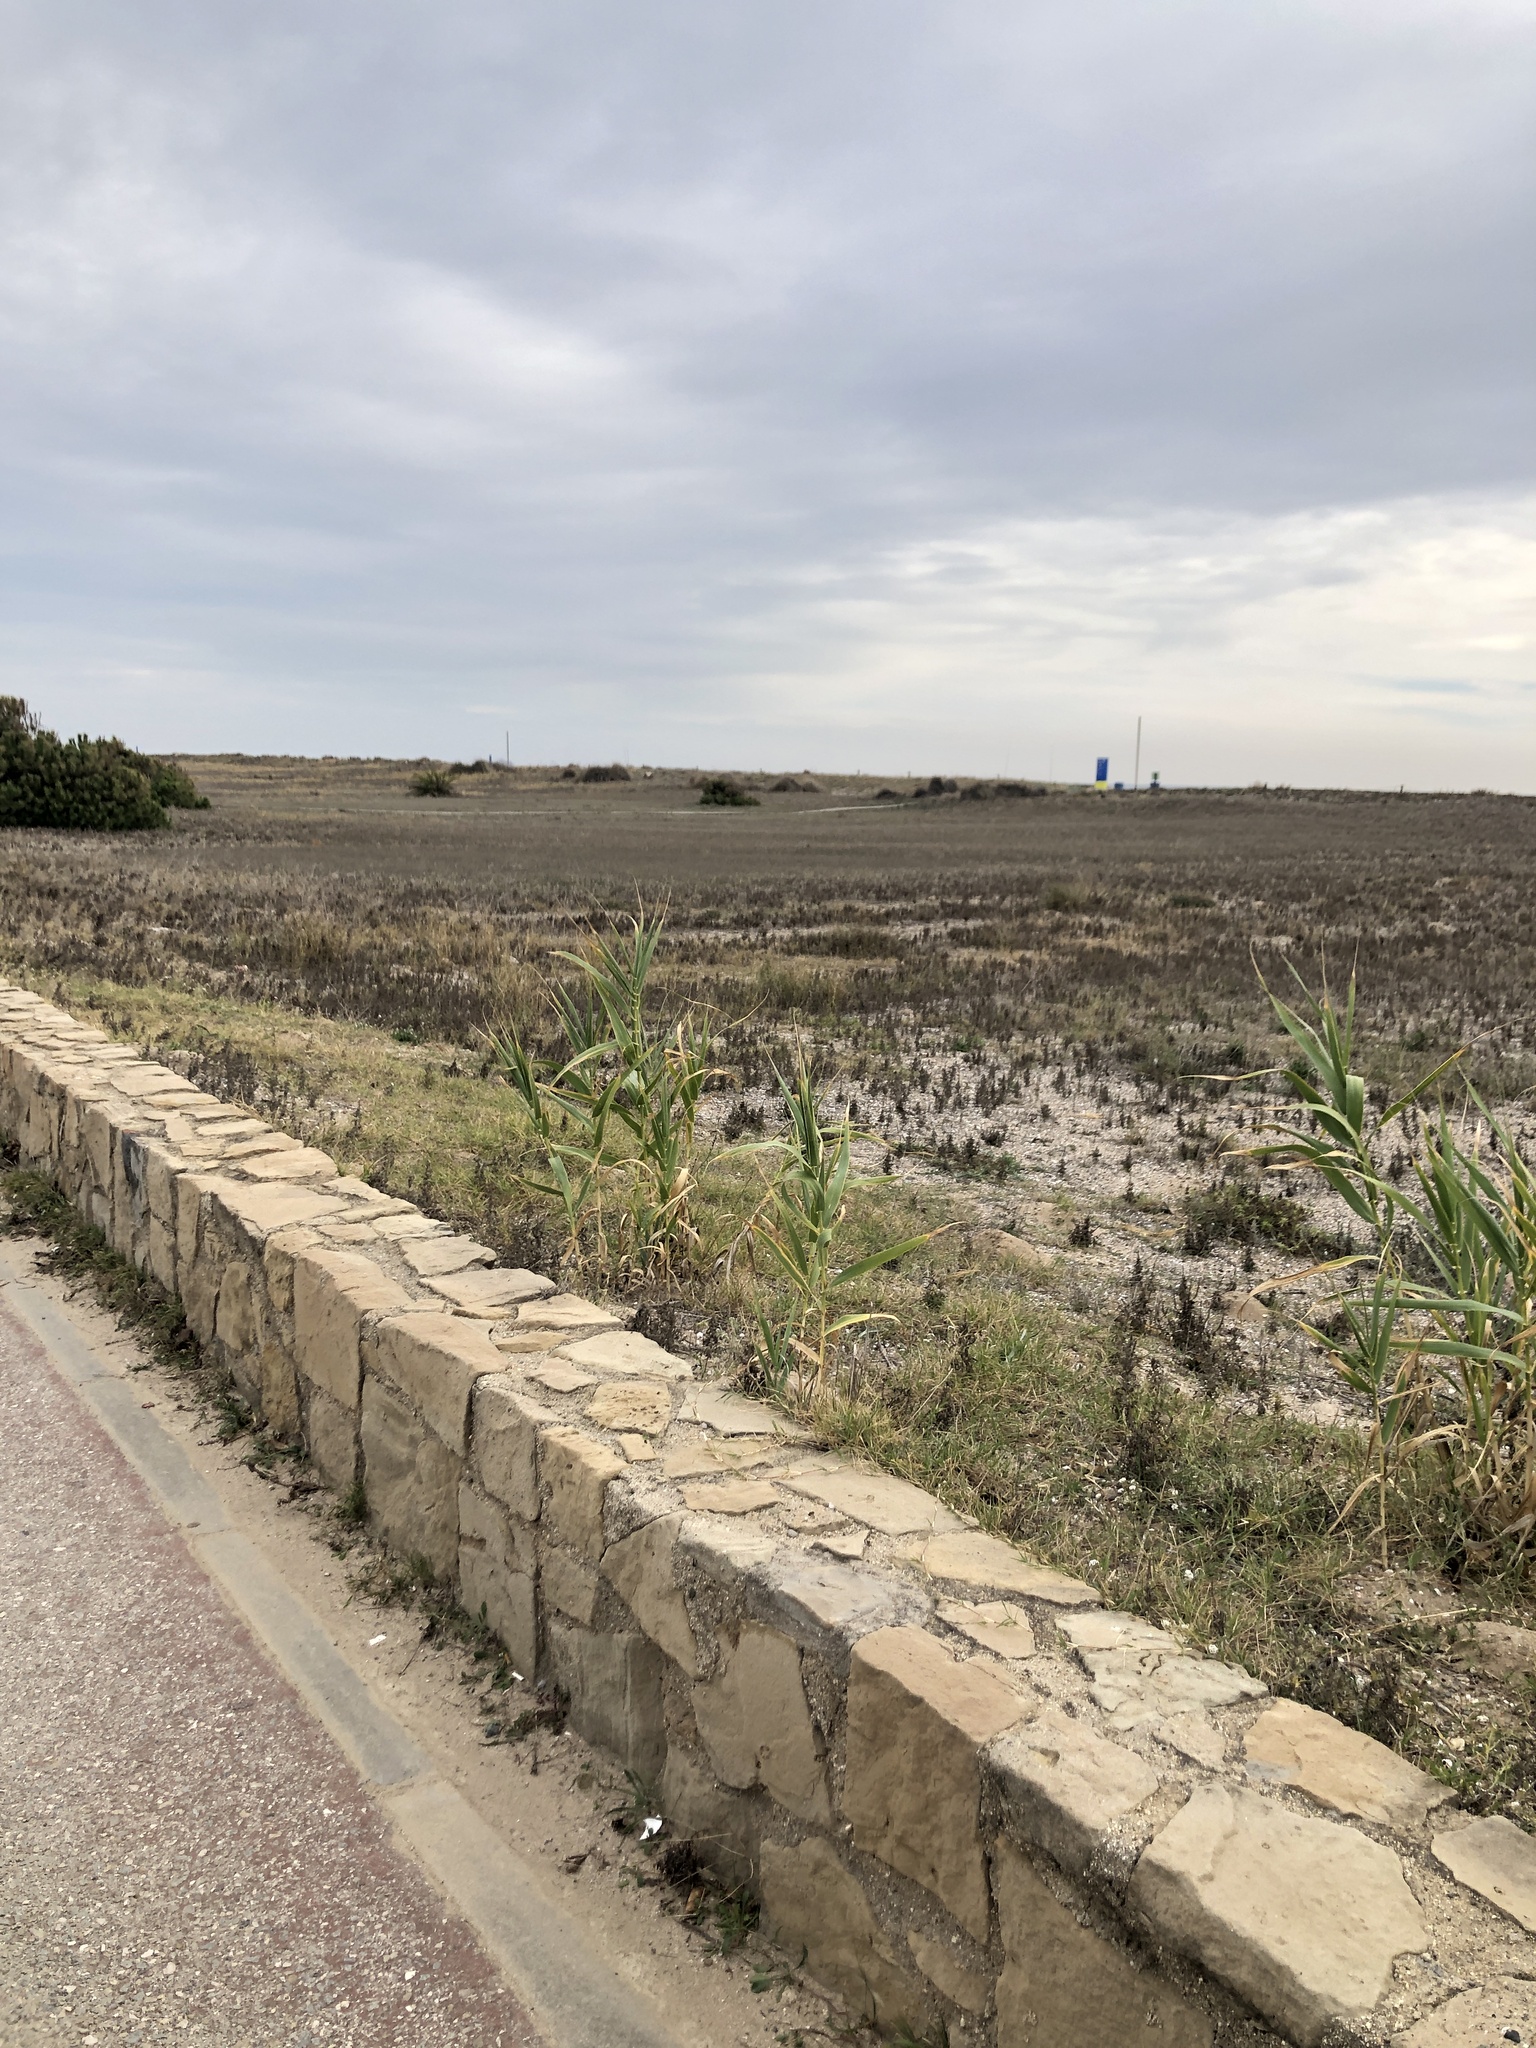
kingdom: Plantae
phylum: Tracheophyta
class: Liliopsida
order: Poales
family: Poaceae
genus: Arundo
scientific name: Arundo donax
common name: Giant reed
